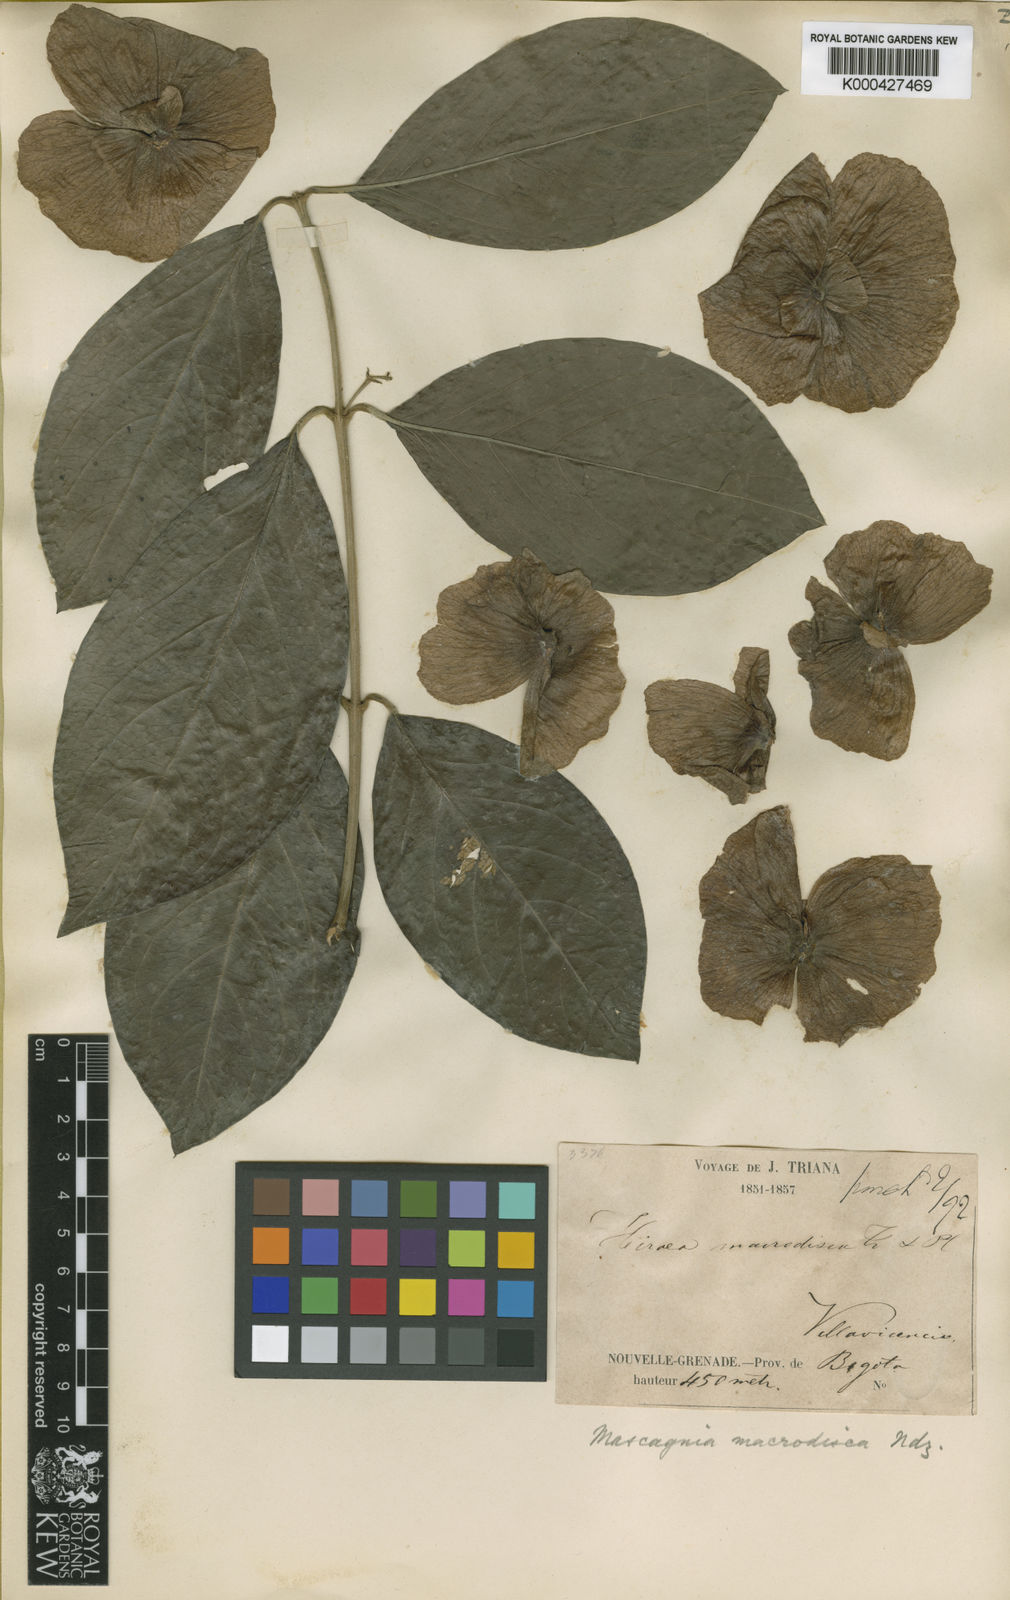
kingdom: Plantae
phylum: Tracheophyta
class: Magnoliopsida
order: Malpighiales
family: Malpighiaceae
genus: Alicia
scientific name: Alicia macrodisca
